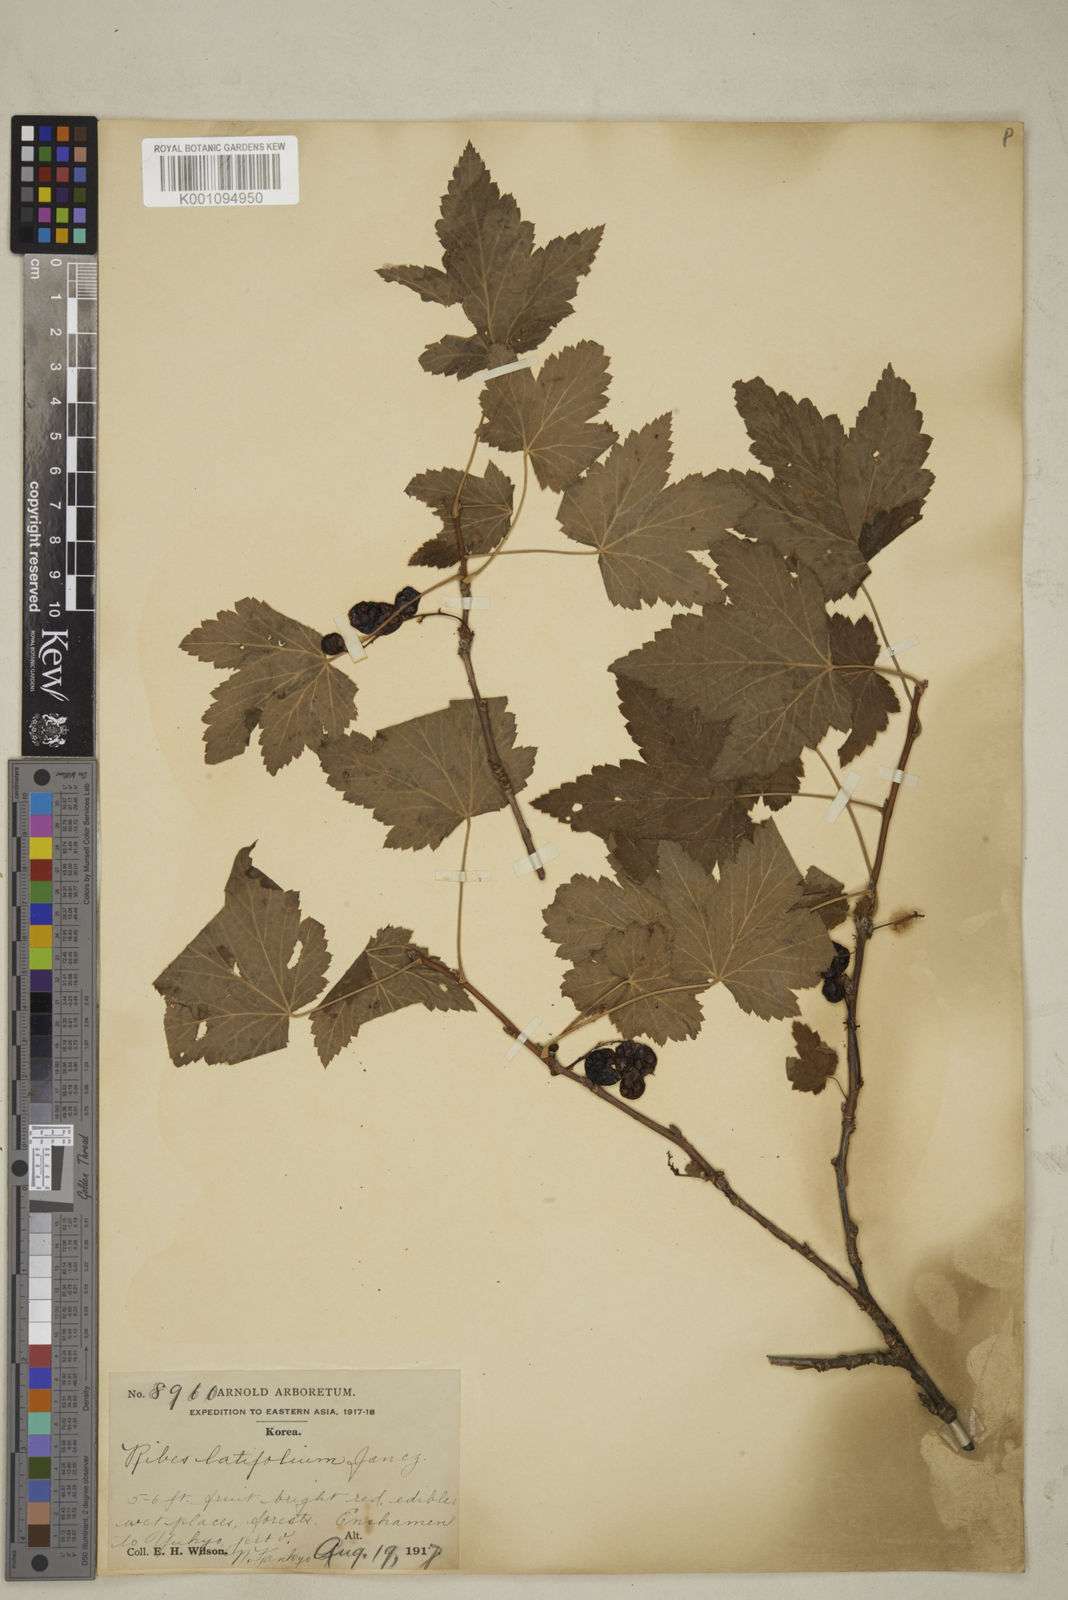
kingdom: Plantae
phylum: Tracheophyta
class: Magnoliopsida
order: Saxifragales
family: Grossulariaceae
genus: Ribes
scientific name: Ribes latifolium
